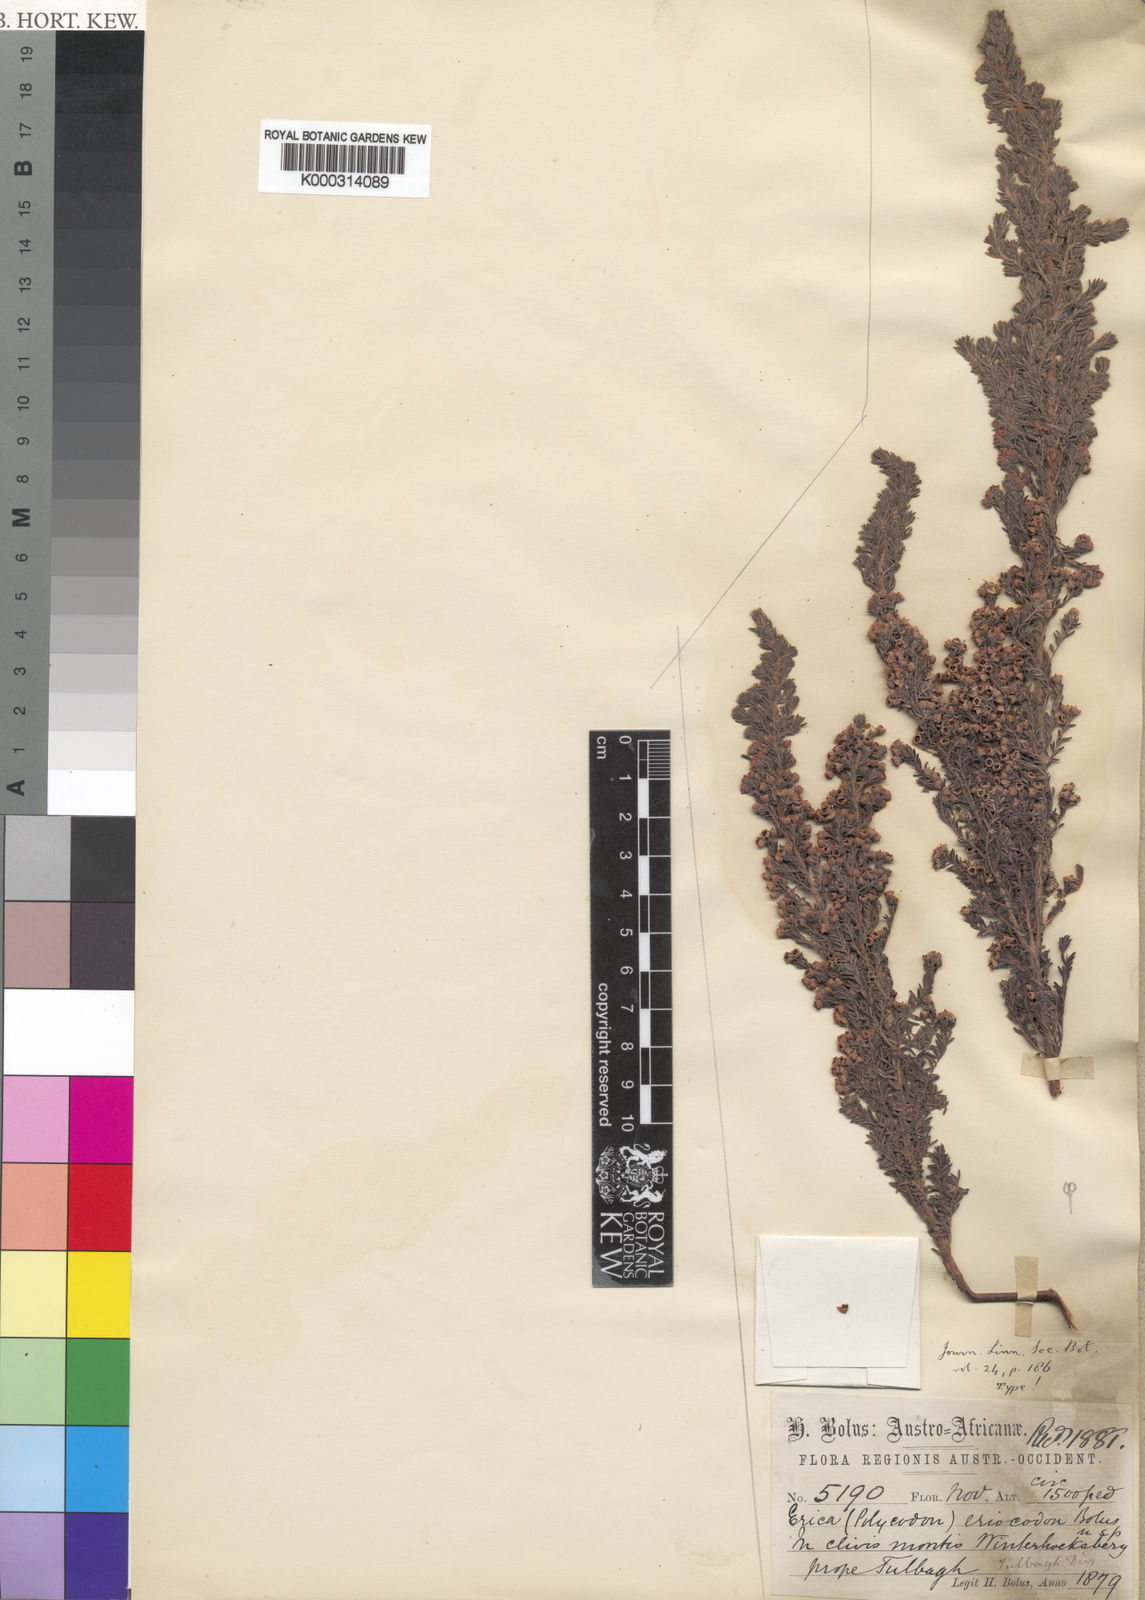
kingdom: Plantae
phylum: Tracheophyta
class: Magnoliopsida
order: Ericales
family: Ericaceae
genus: Erica
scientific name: Erica eriocodon
